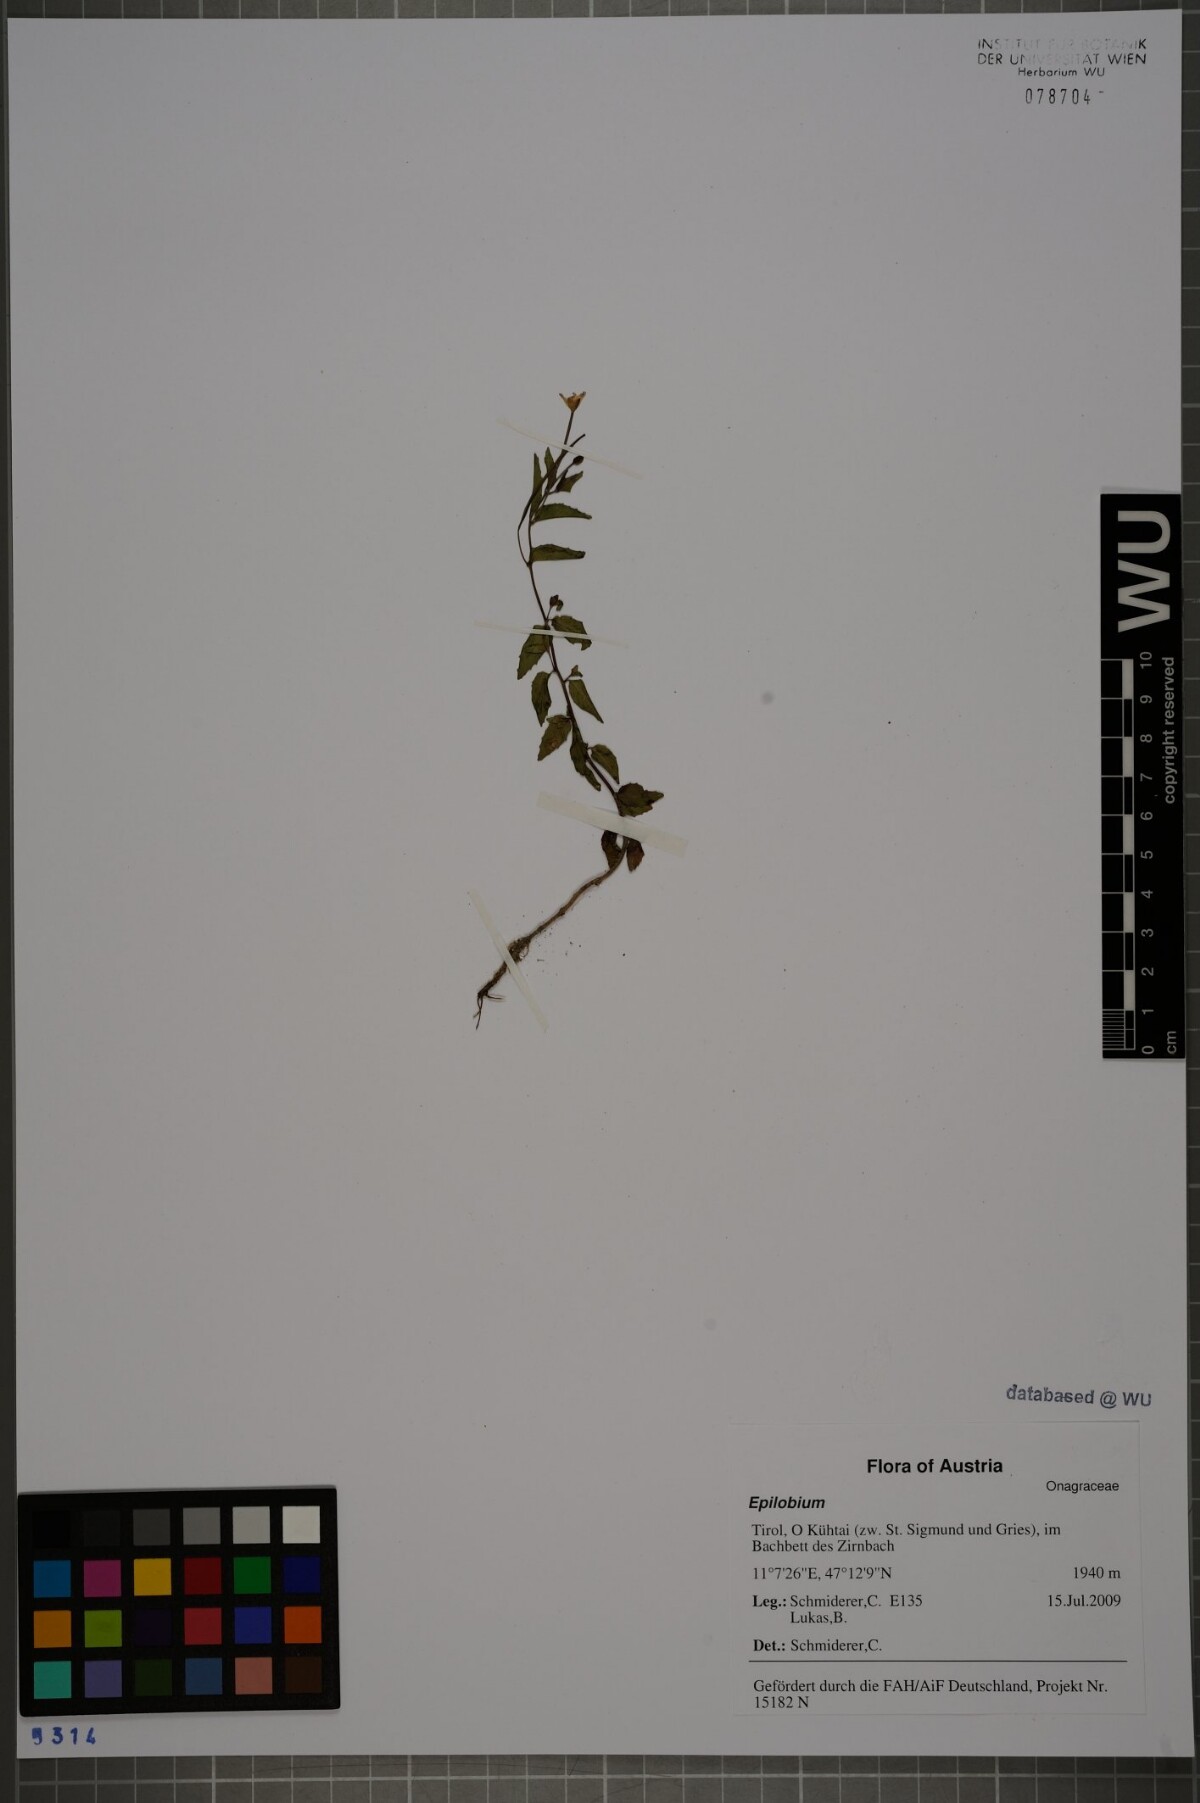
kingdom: Plantae
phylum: Tracheophyta
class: Magnoliopsida
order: Myrtales
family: Onagraceae
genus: Epilobium
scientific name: Epilobium collinum
